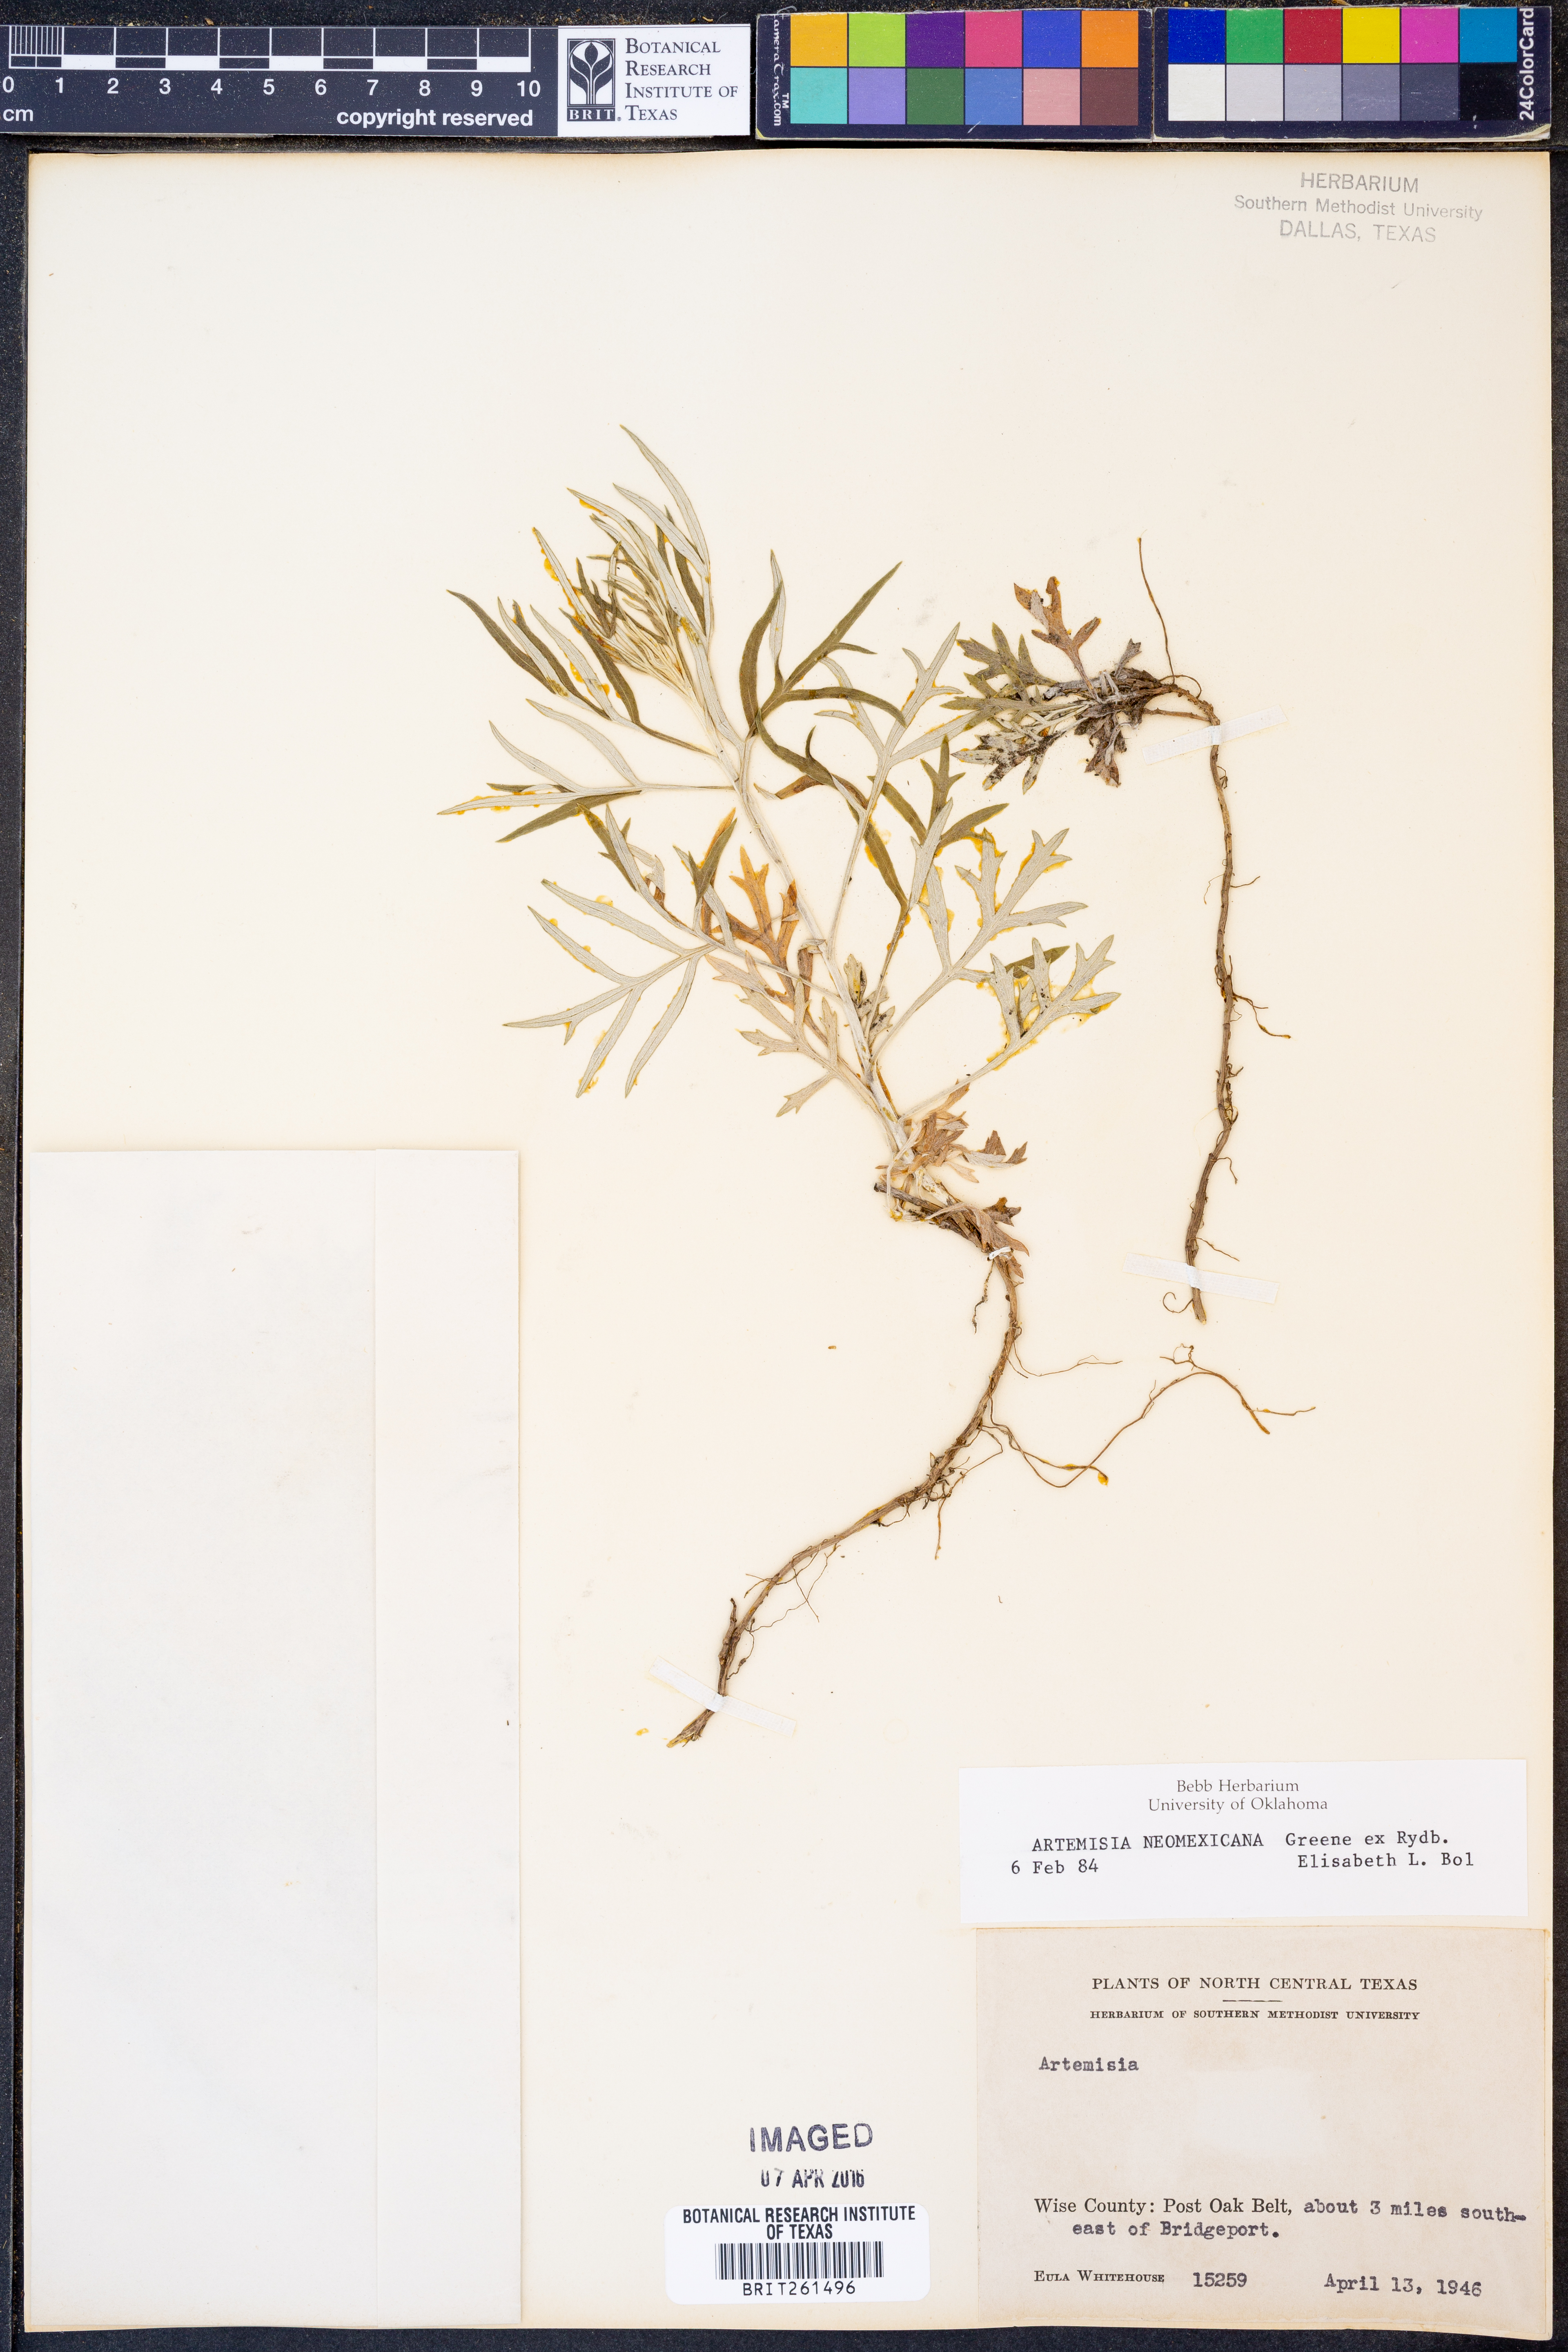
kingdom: Plantae
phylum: Tracheophyta
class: Magnoliopsida
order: Asterales
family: Asteraceae
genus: Artemisia
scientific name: Artemisia ludoviciana
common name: Western mugwort
